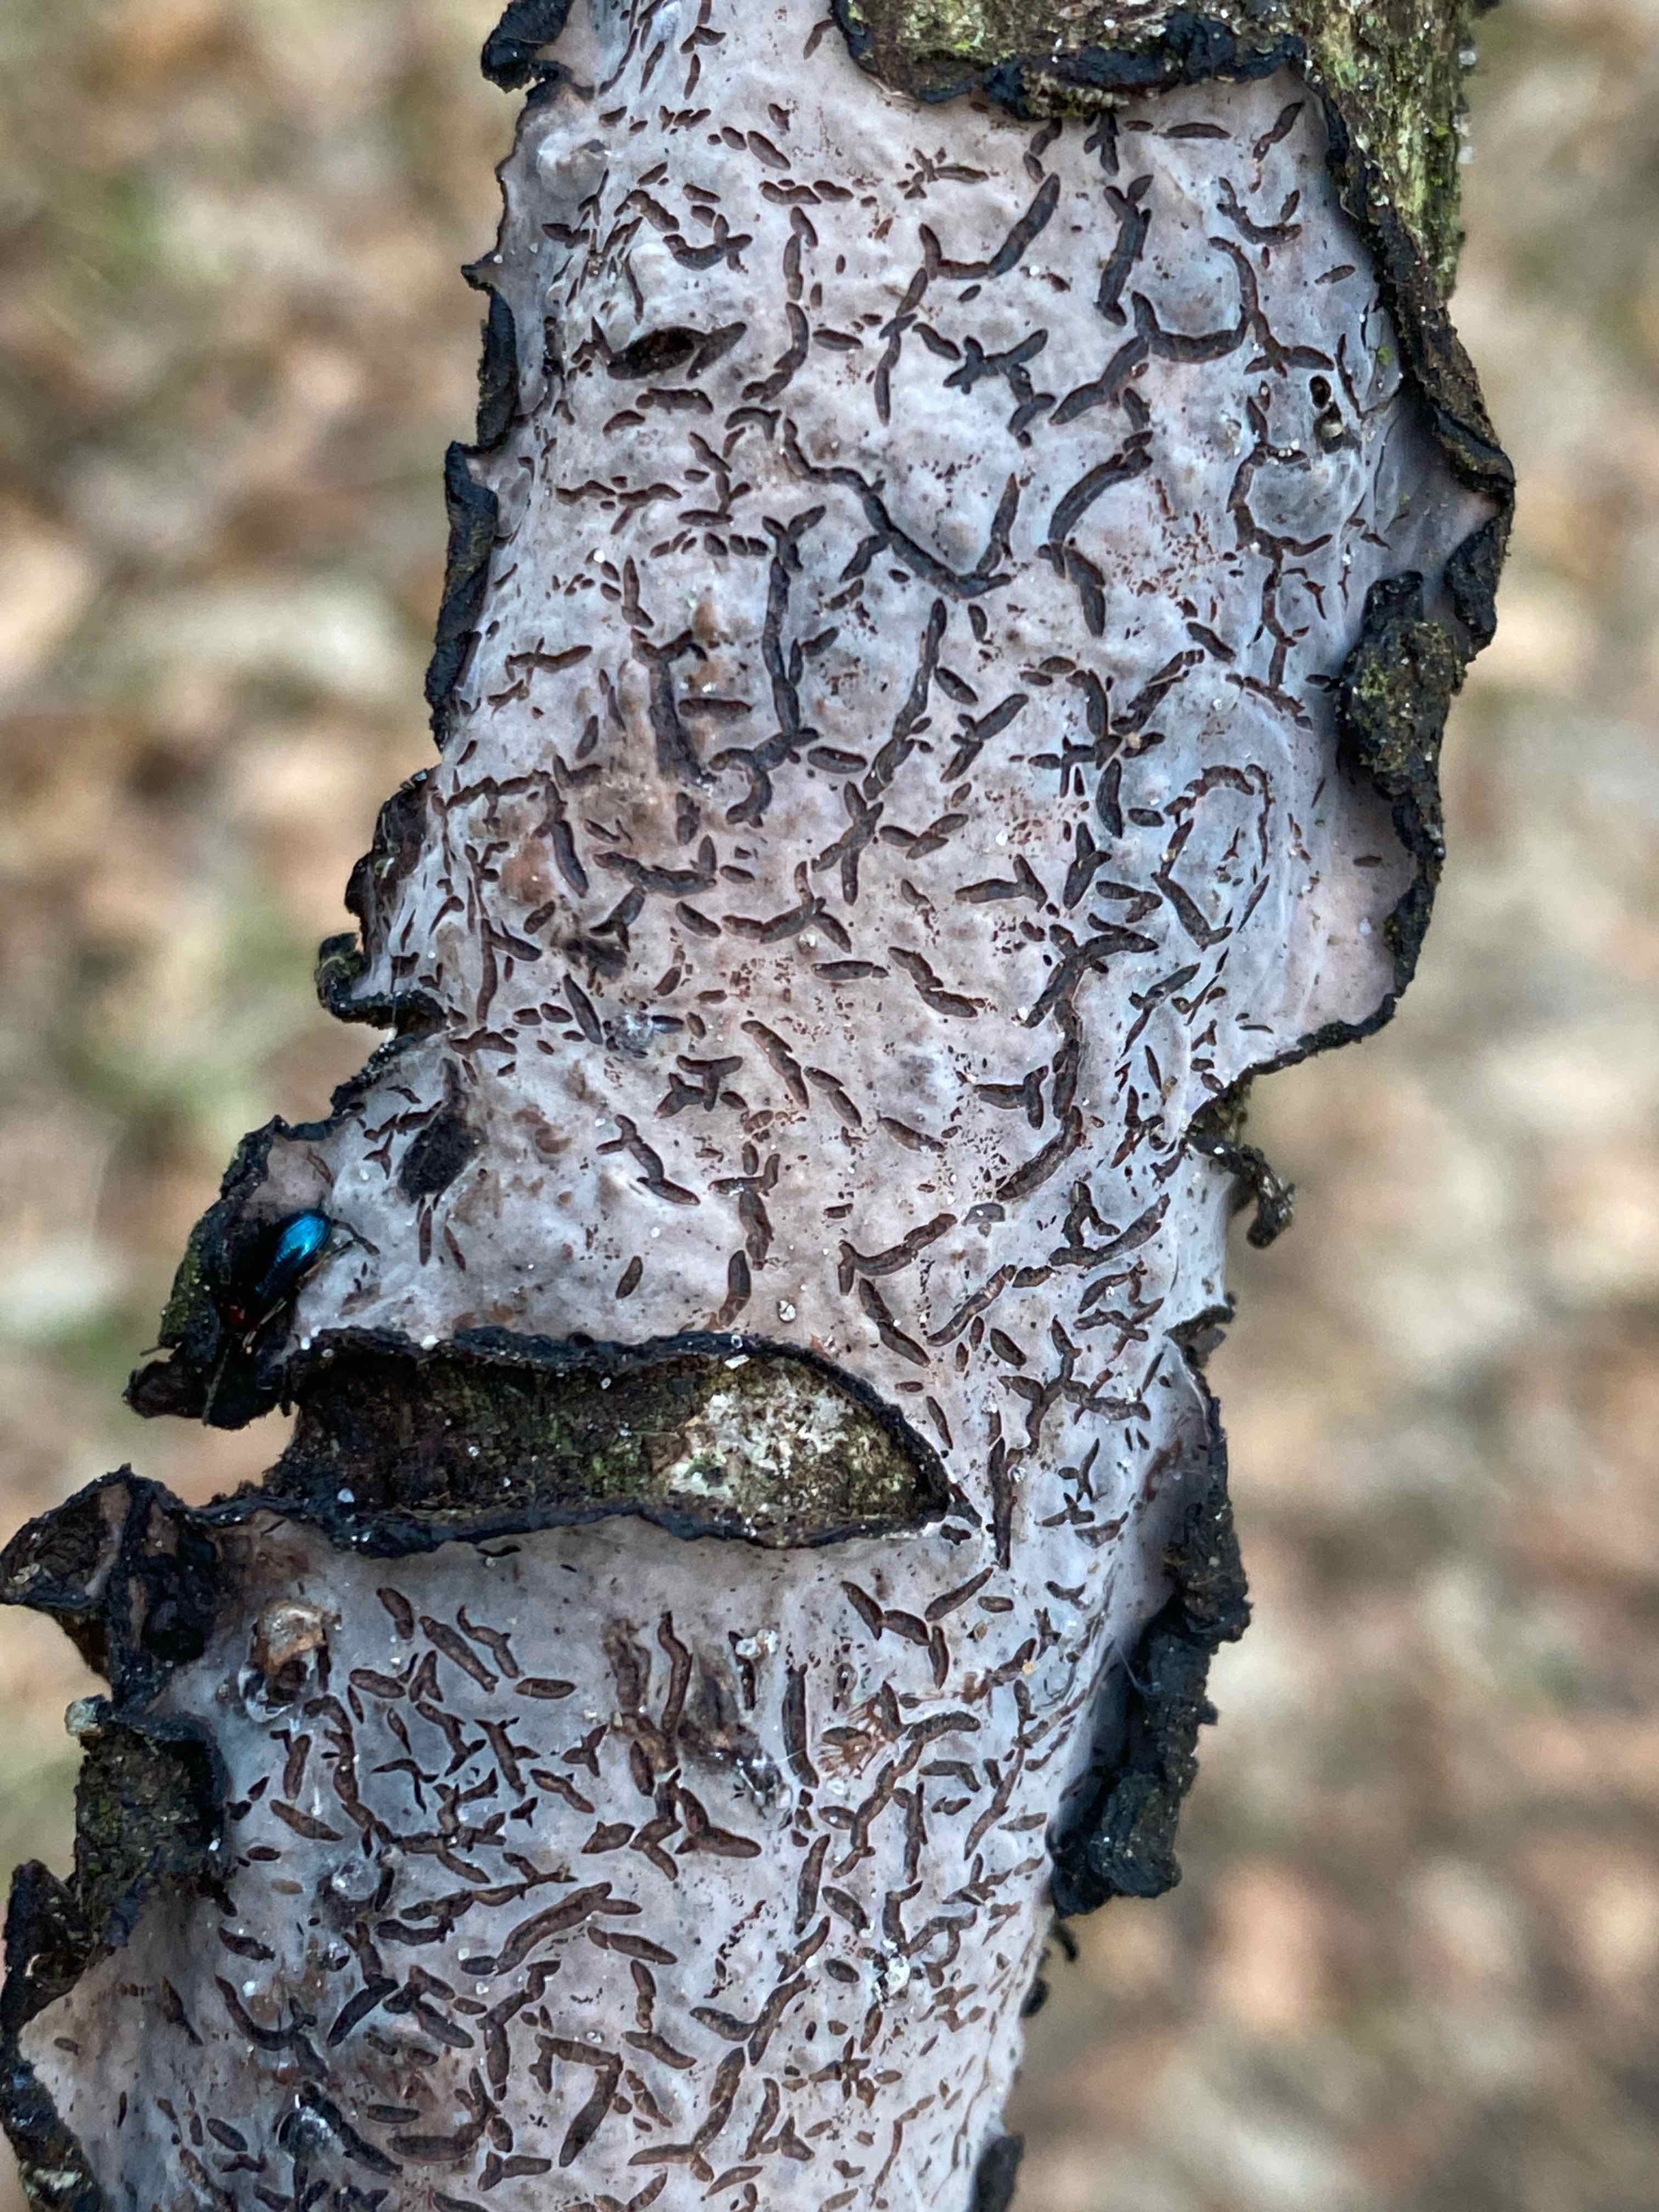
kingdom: Fungi
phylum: Basidiomycota
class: Agaricomycetes
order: Russulales
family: Peniophoraceae
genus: Peniophora
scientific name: Peniophora quercina
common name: ege-voksskind
